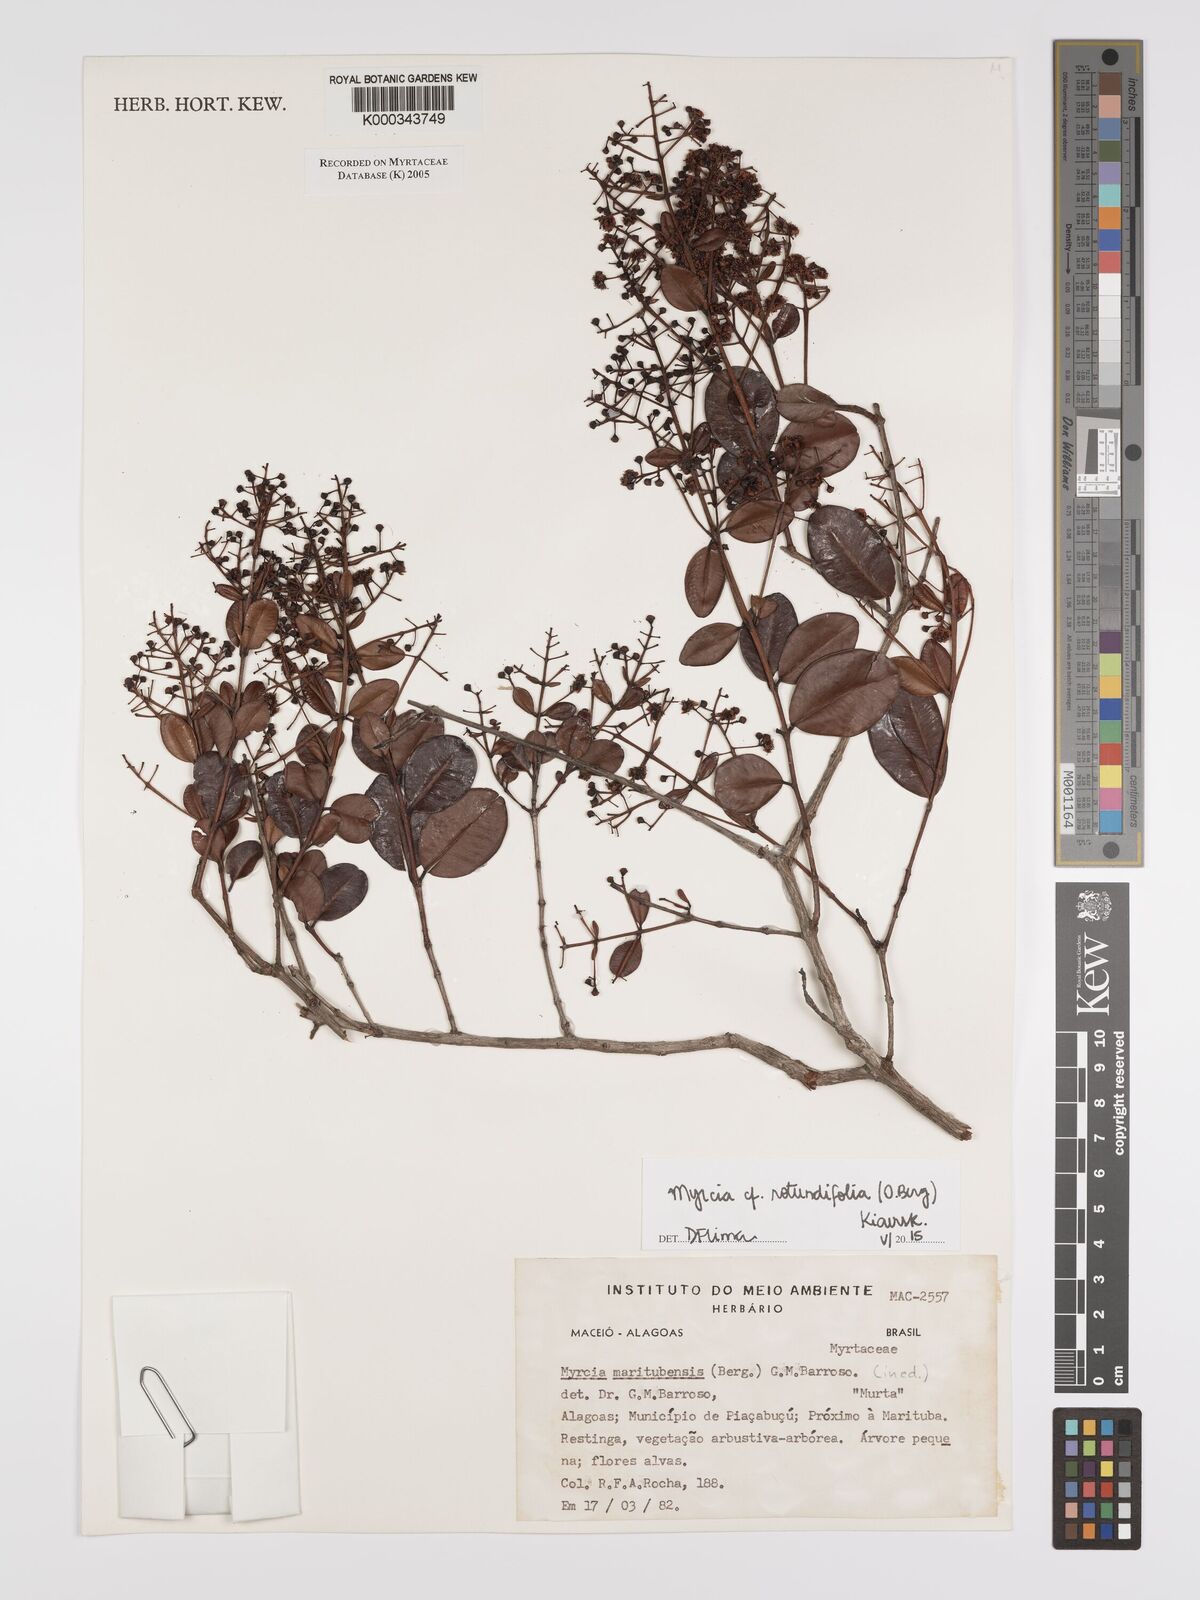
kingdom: Plantae
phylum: Tracheophyta
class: Magnoliopsida
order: Myrtales
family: Myrtaceae
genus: Myrcia
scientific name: Myrcia
